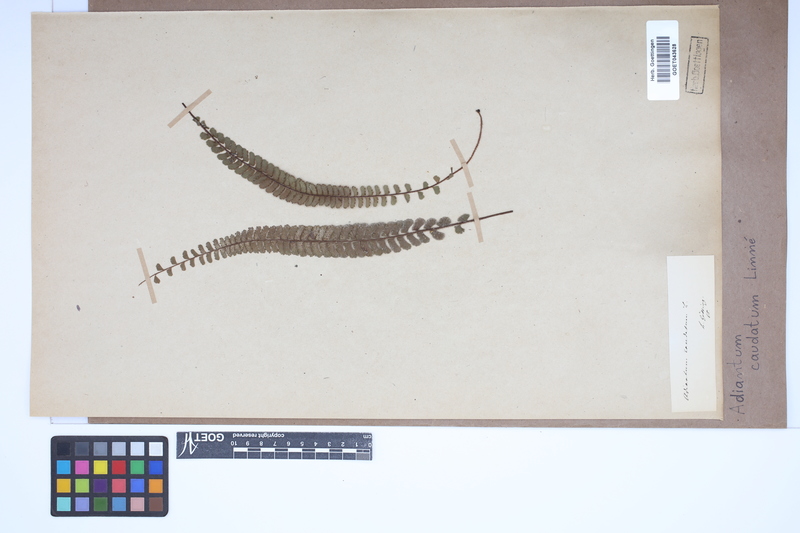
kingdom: Plantae
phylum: Tracheophyta
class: Polypodiopsida
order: Polypodiales
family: Pteridaceae
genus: Adiantum
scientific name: Adiantum caudatum
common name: Tailed maidenhair
